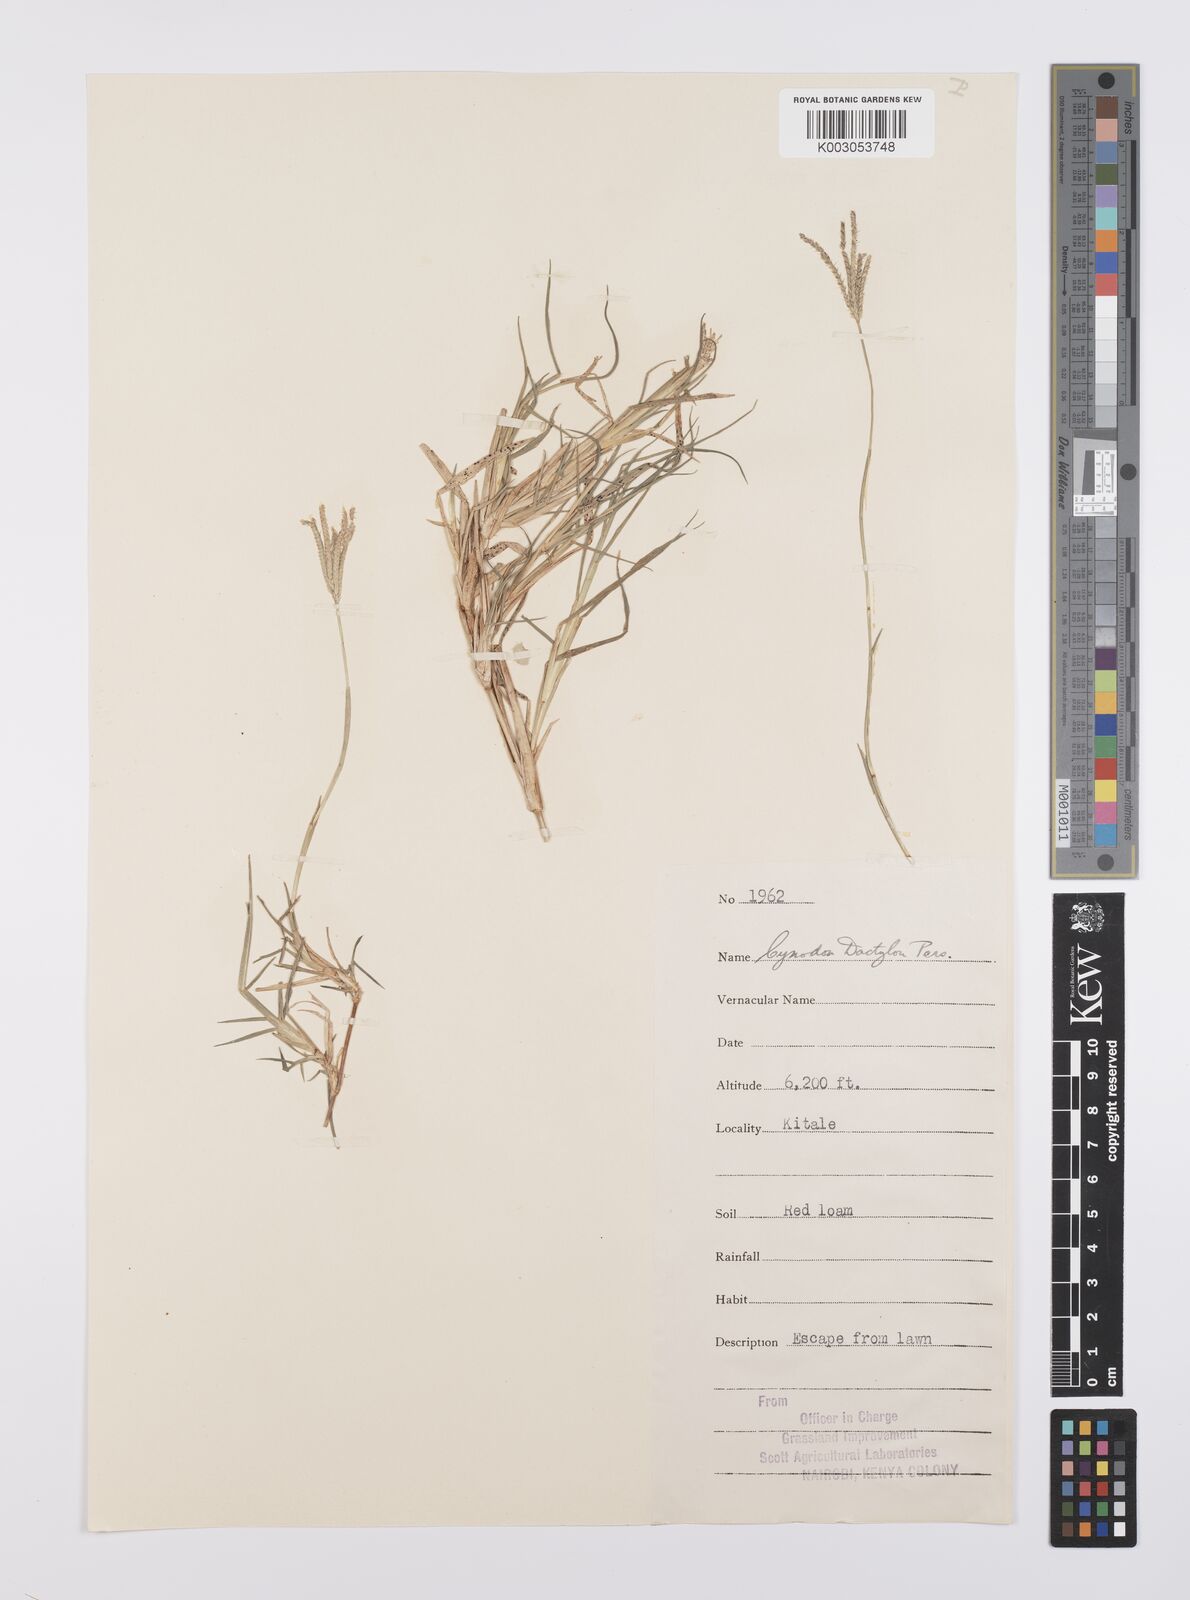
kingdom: Plantae
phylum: Tracheophyta
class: Liliopsida
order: Poales
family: Poaceae
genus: Cynodon
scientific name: Cynodon dactylon
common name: Bermuda grass
